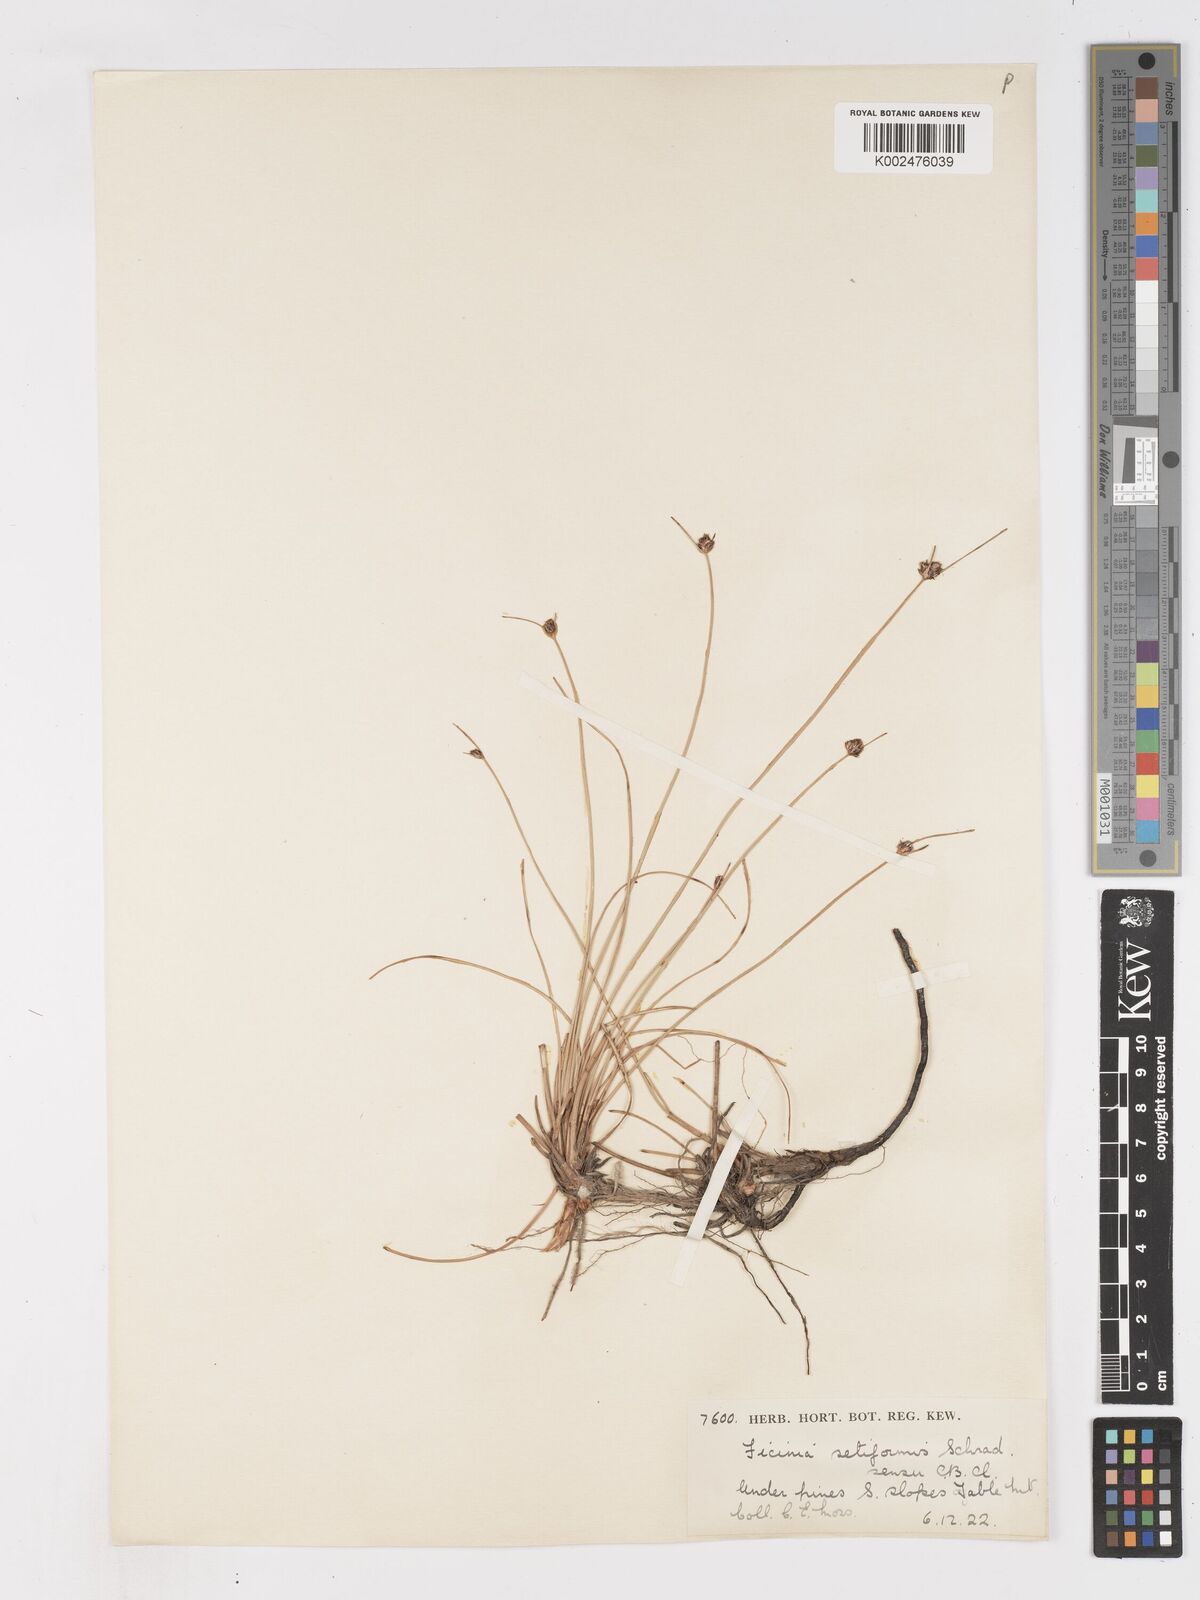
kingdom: Plantae
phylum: Tracheophyta
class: Liliopsida
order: Poales
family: Cyperaceae
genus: Ficinia
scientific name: Ficinia indica
